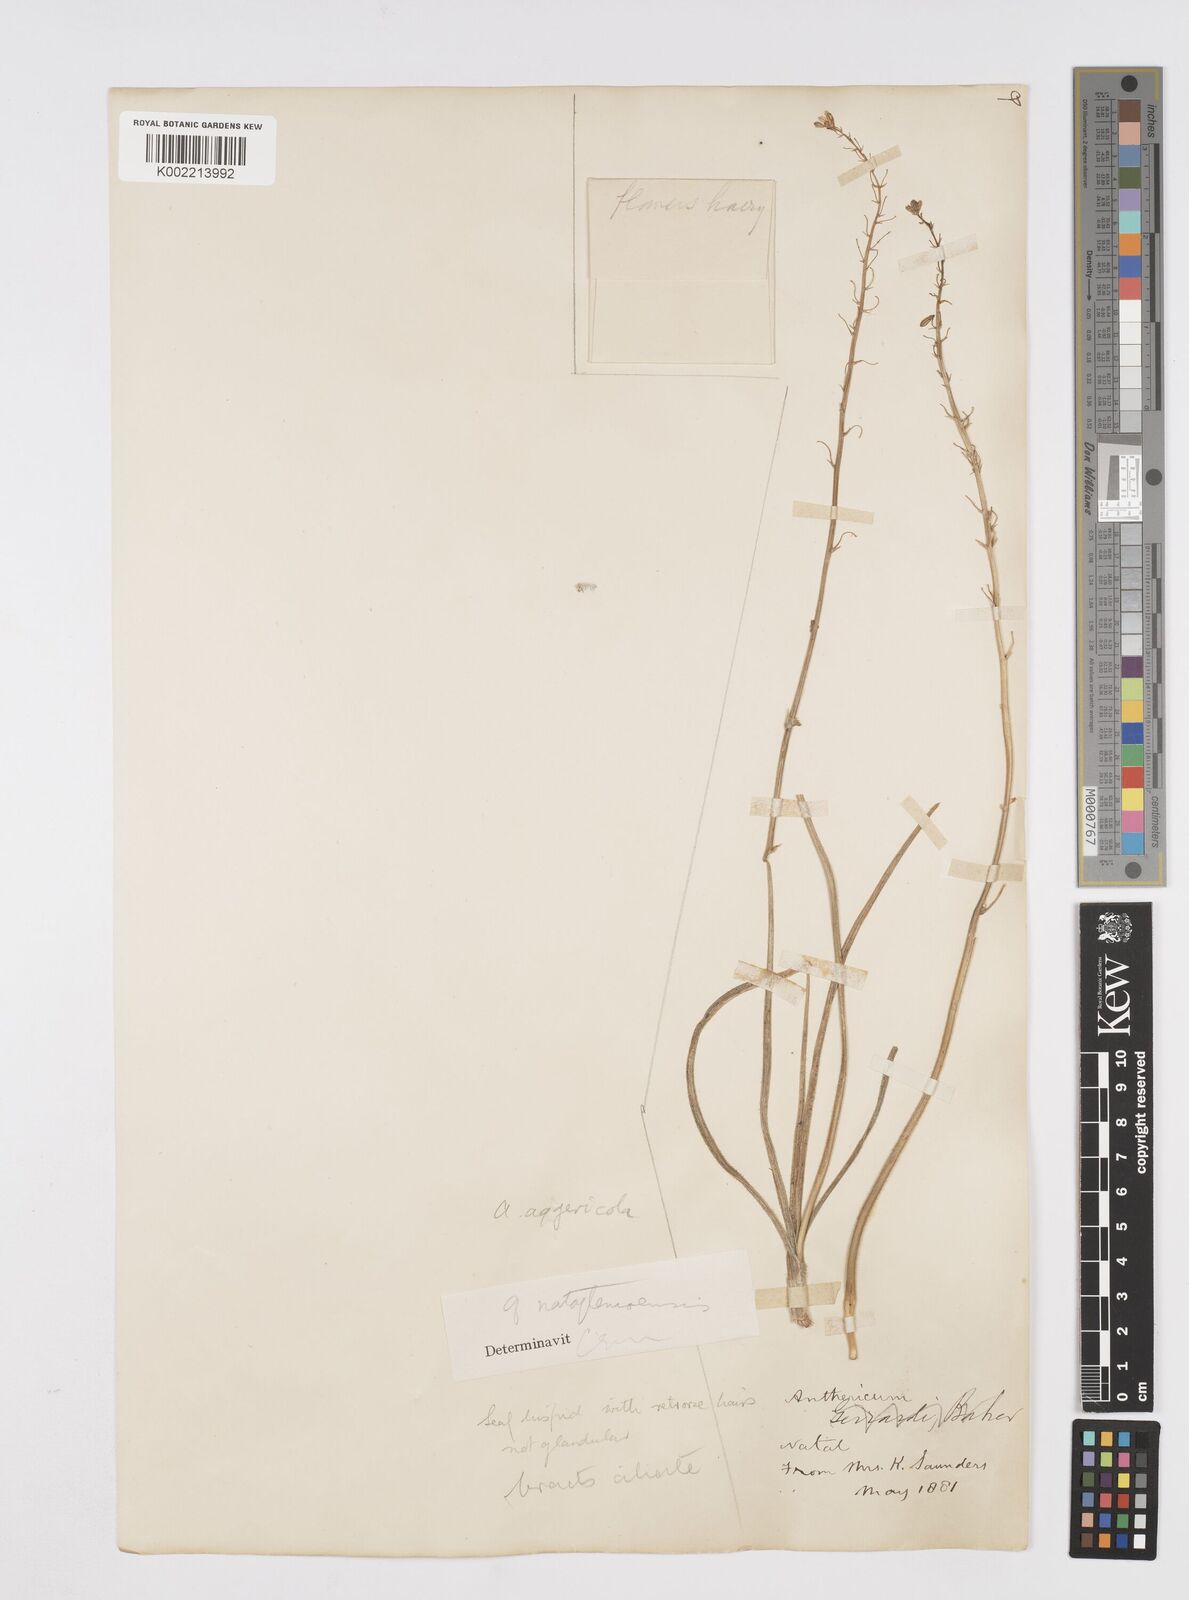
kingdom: Plantae
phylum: Tracheophyta
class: Liliopsida
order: Asparagales
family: Asphodelaceae
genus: Trachyandra
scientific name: Trachyandra asperata
